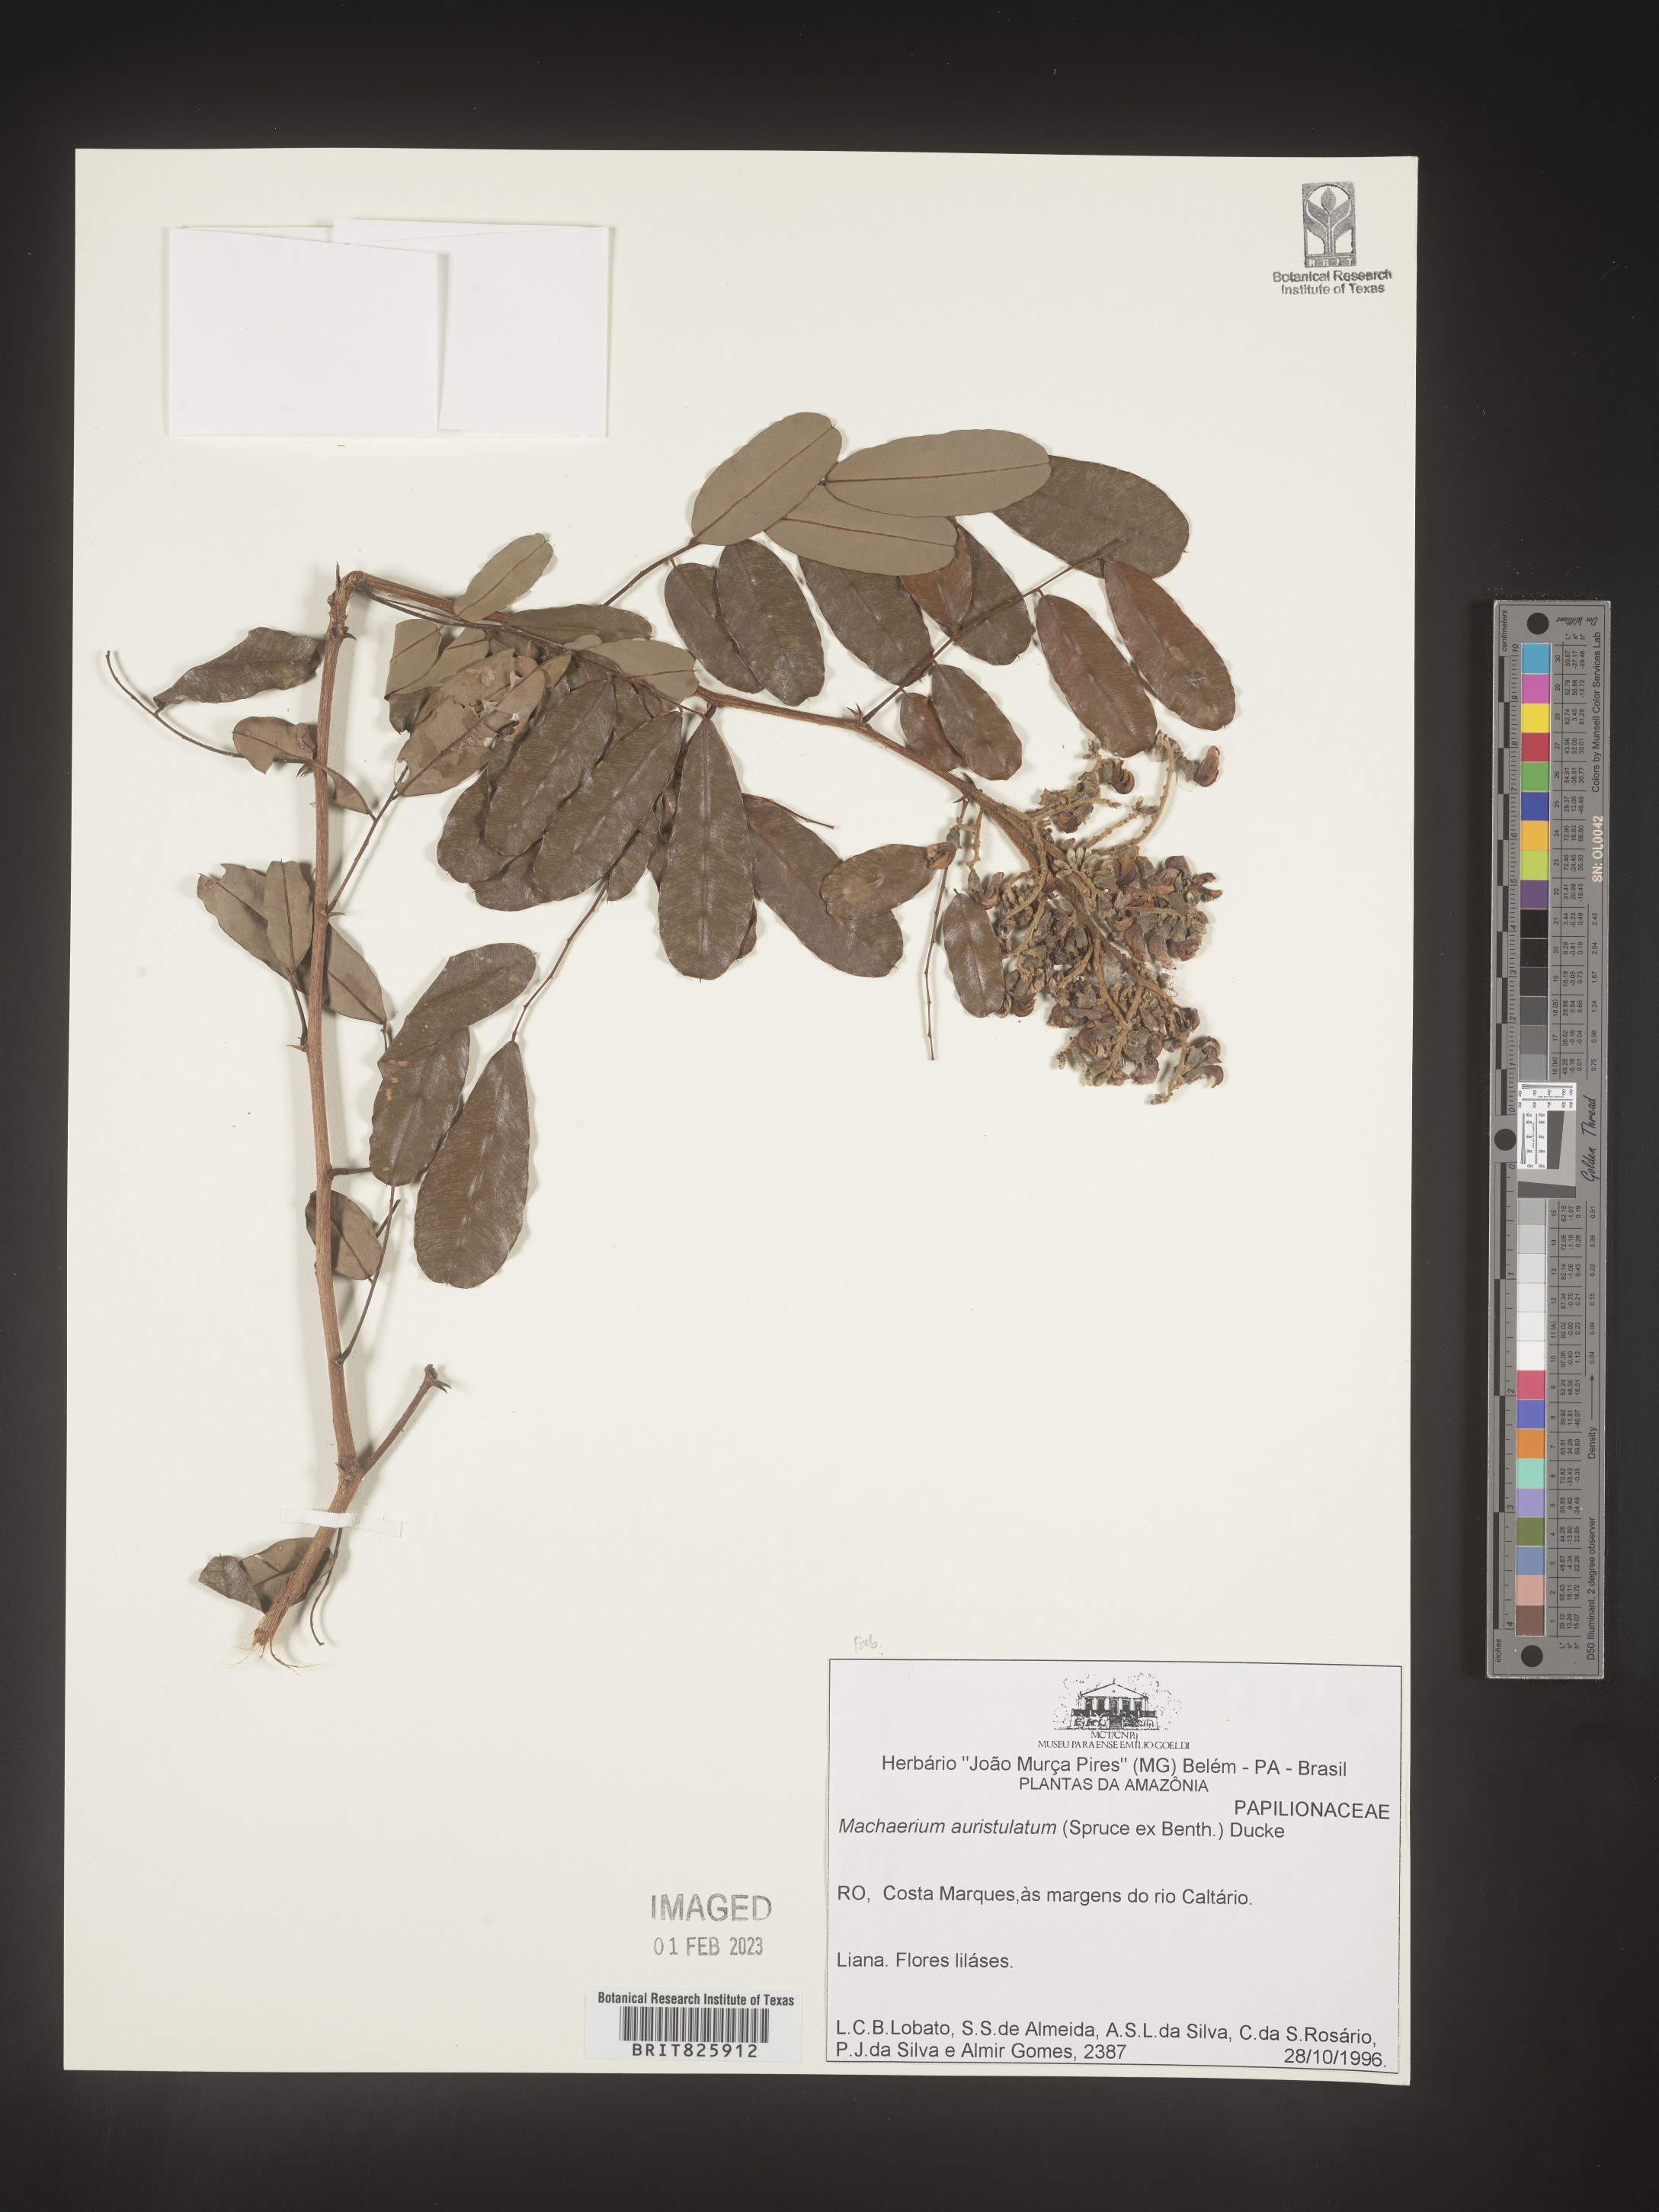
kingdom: Plantae
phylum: Tracheophyta
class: Magnoliopsida
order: Fabales
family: Fabaceae
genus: Machaerium
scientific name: Machaerium
